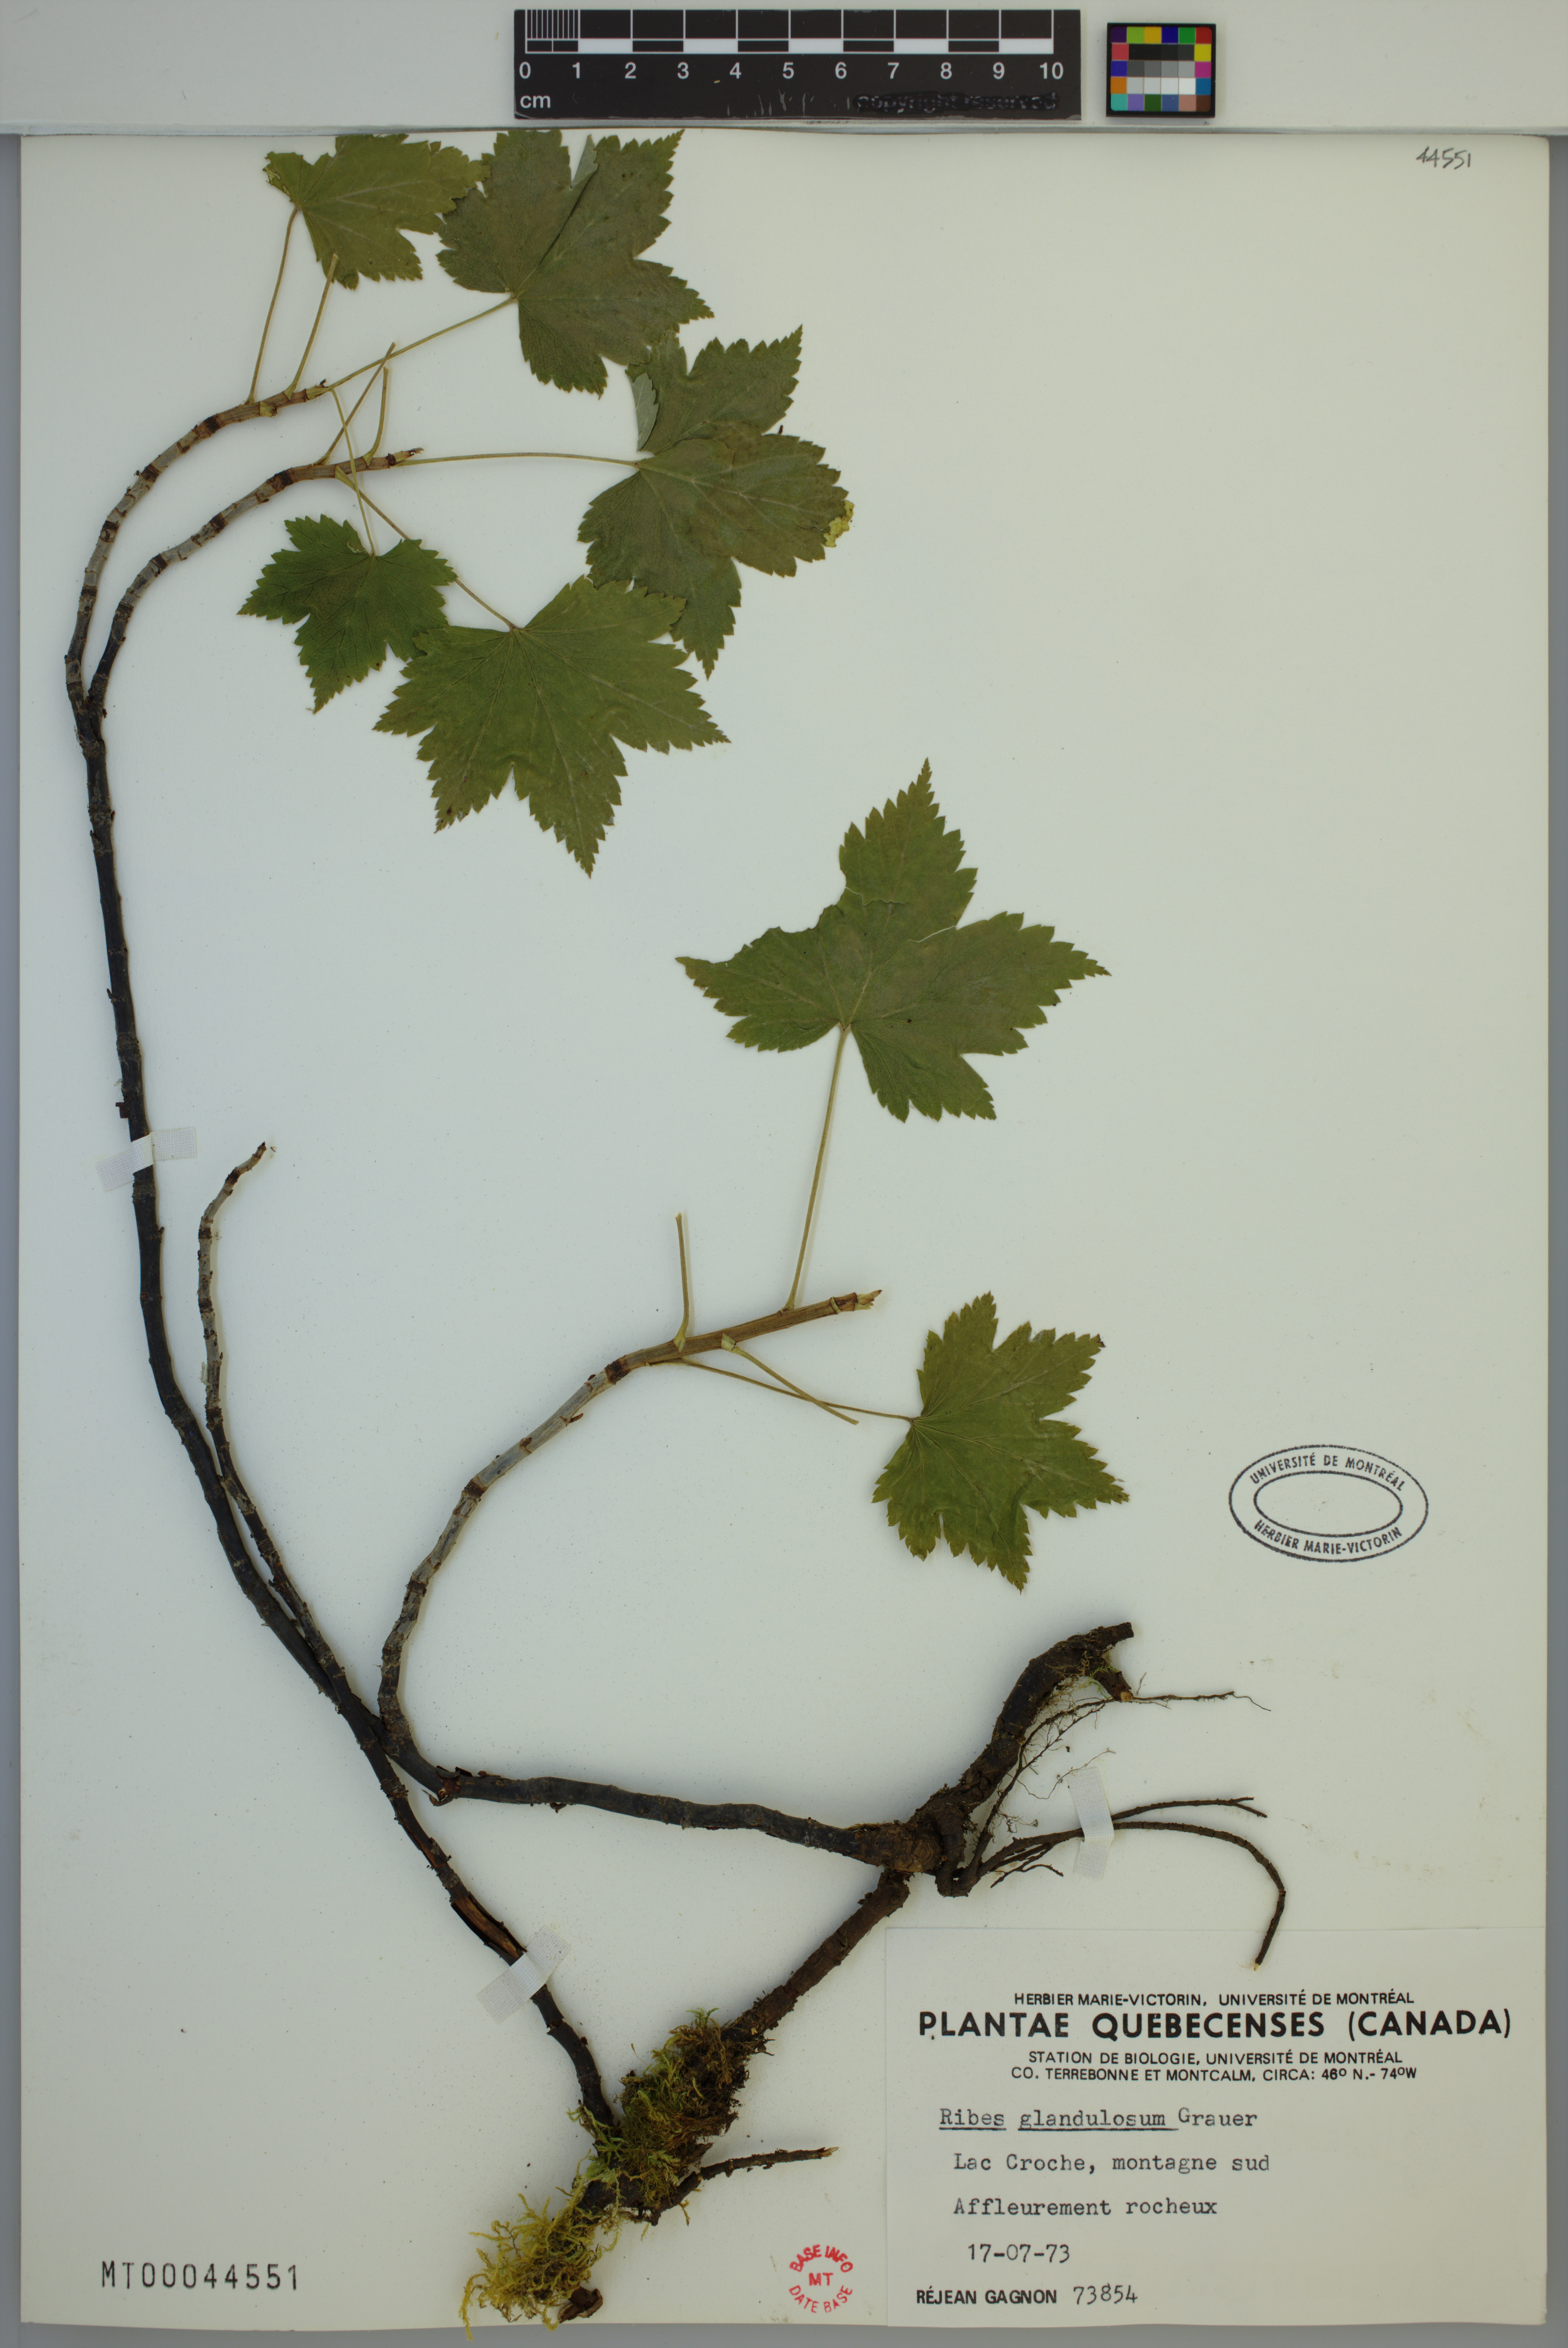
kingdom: Plantae
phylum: Tracheophyta
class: Magnoliopsida
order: Saxifragales
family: Grossulariaceae
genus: Ribes
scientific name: Ribes glandulosum
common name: Skunk currant
